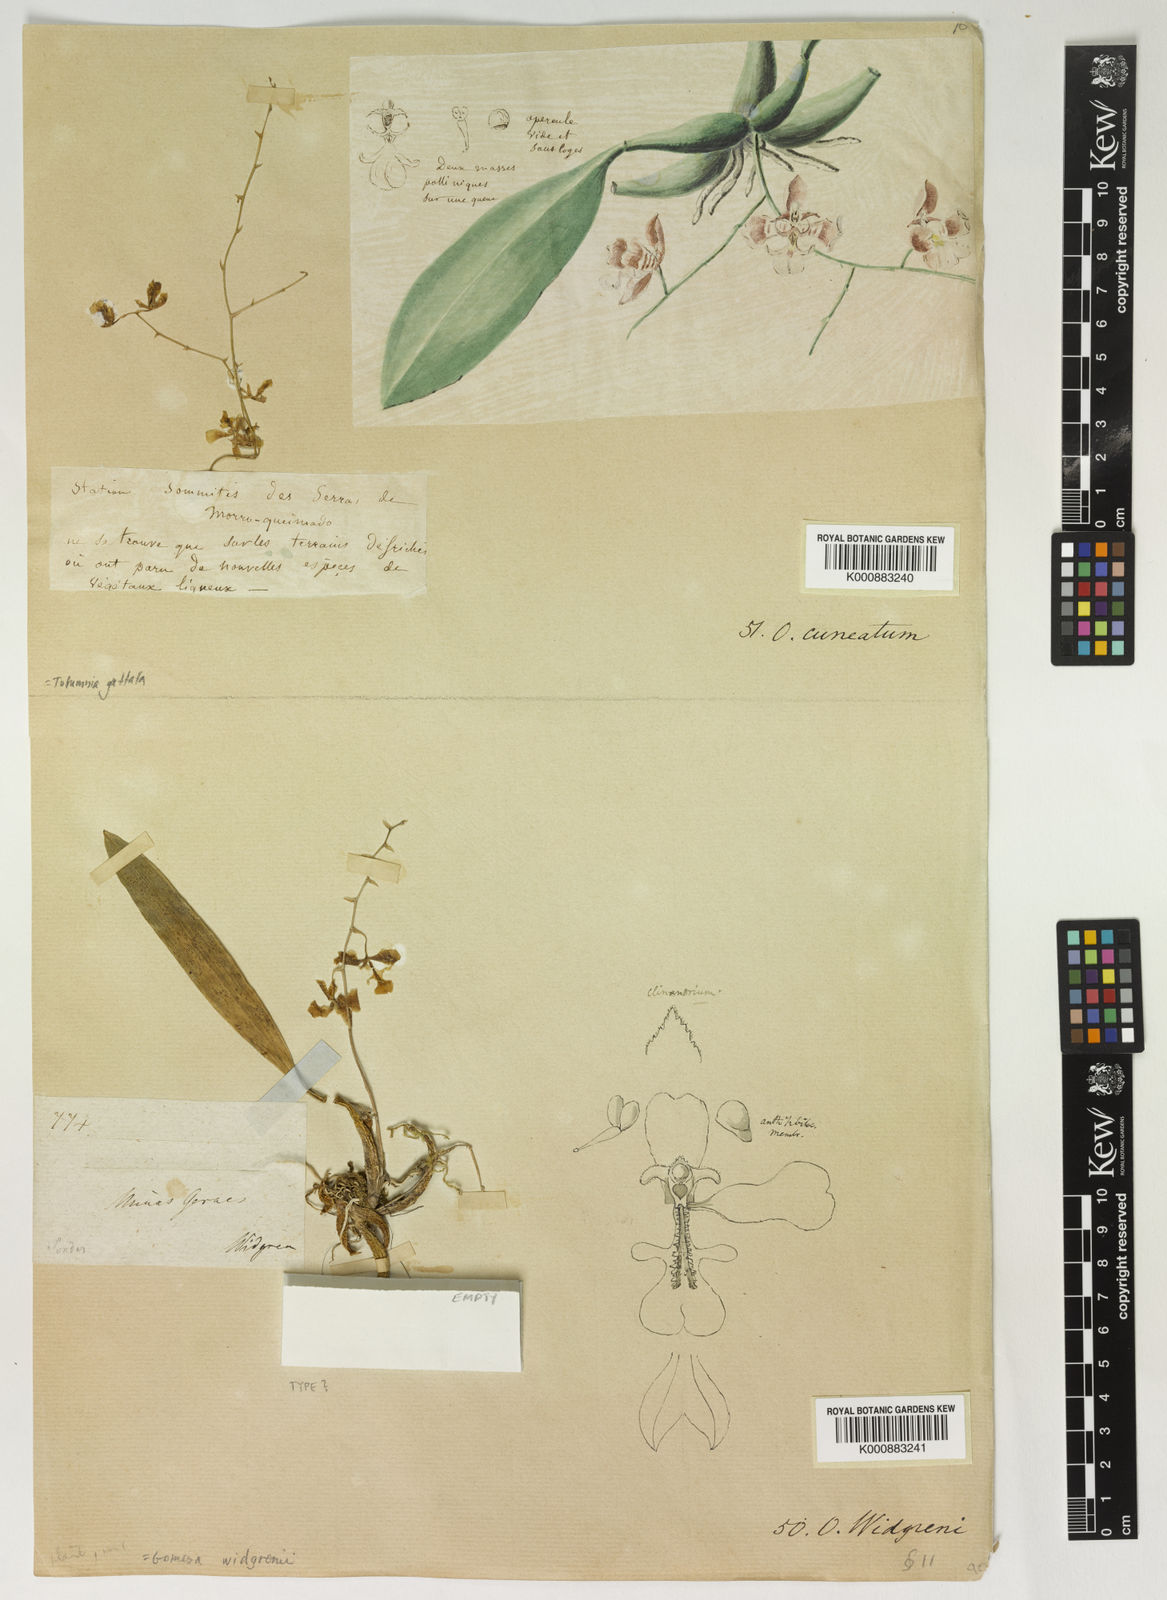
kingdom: Plantae
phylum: Tracheophyta
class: Liliopsida
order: Asparagales
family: Orchidaceae
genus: Gomesa
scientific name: Gomesa cuneata
